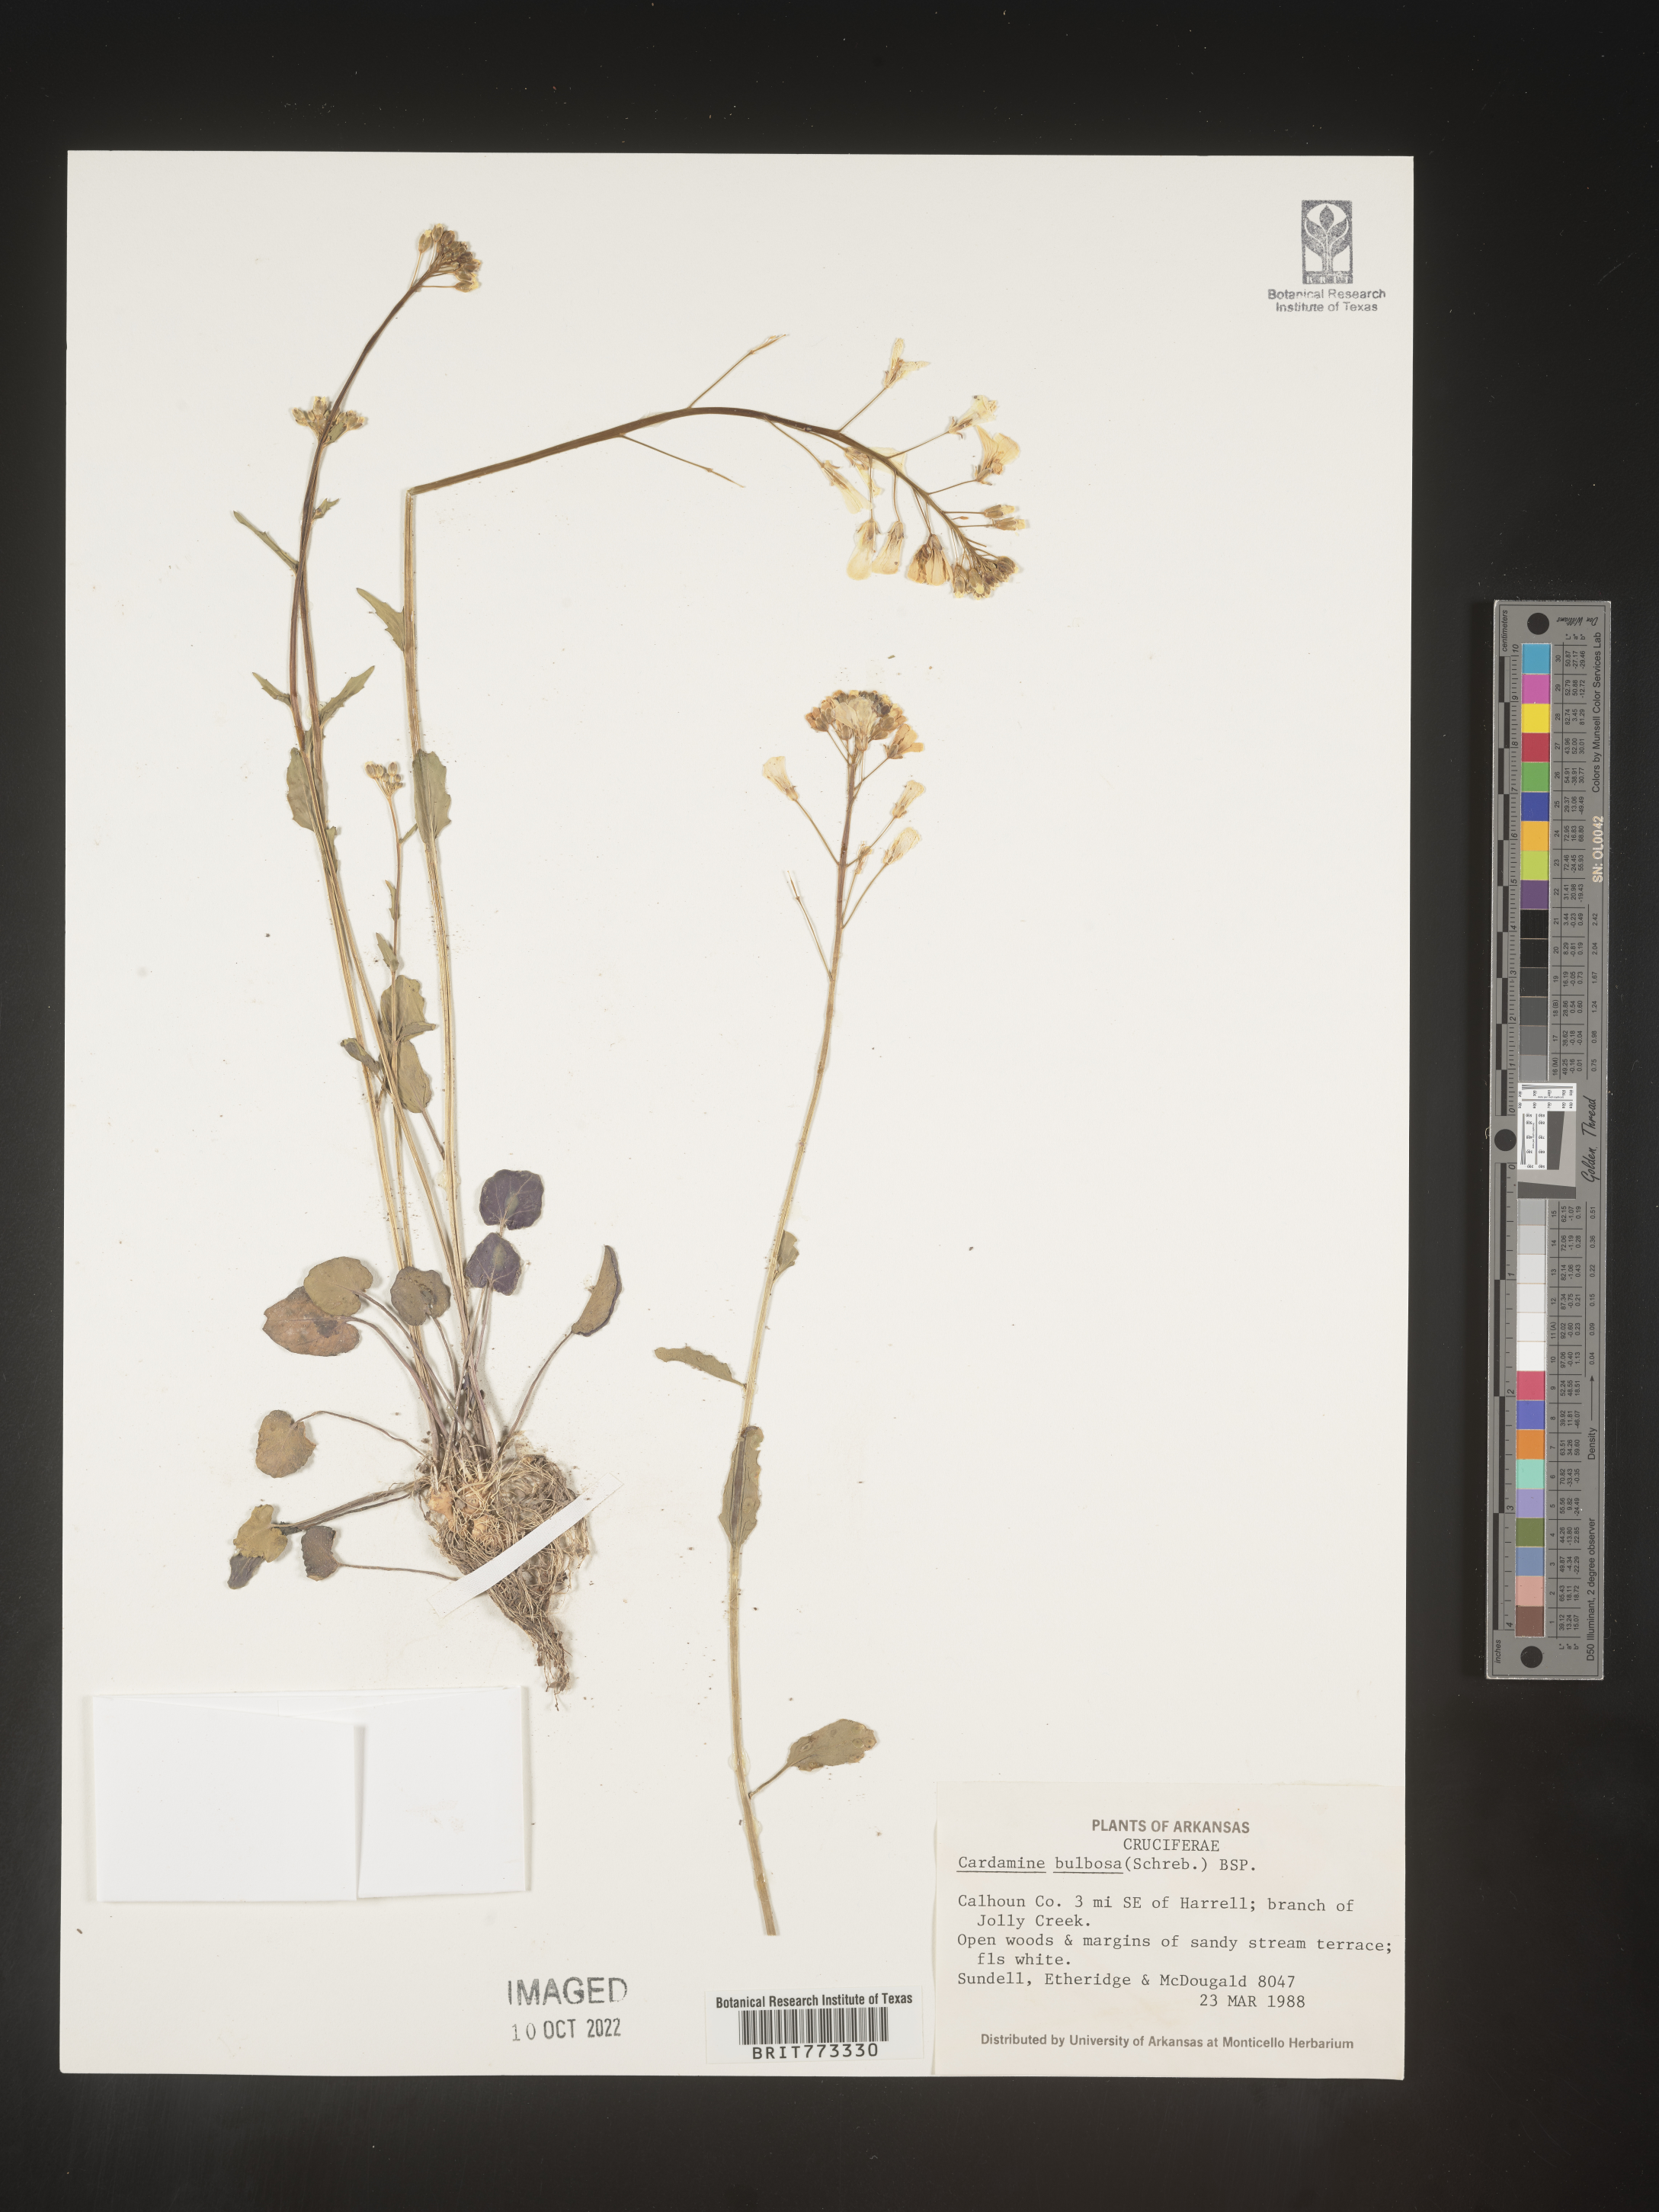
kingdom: Plantae
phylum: Tracheophyta
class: Magnoliopsida
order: Brassicales
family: Brassicaceae
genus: Cardamine
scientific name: Cardamine bulbosa
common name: Spring cress
